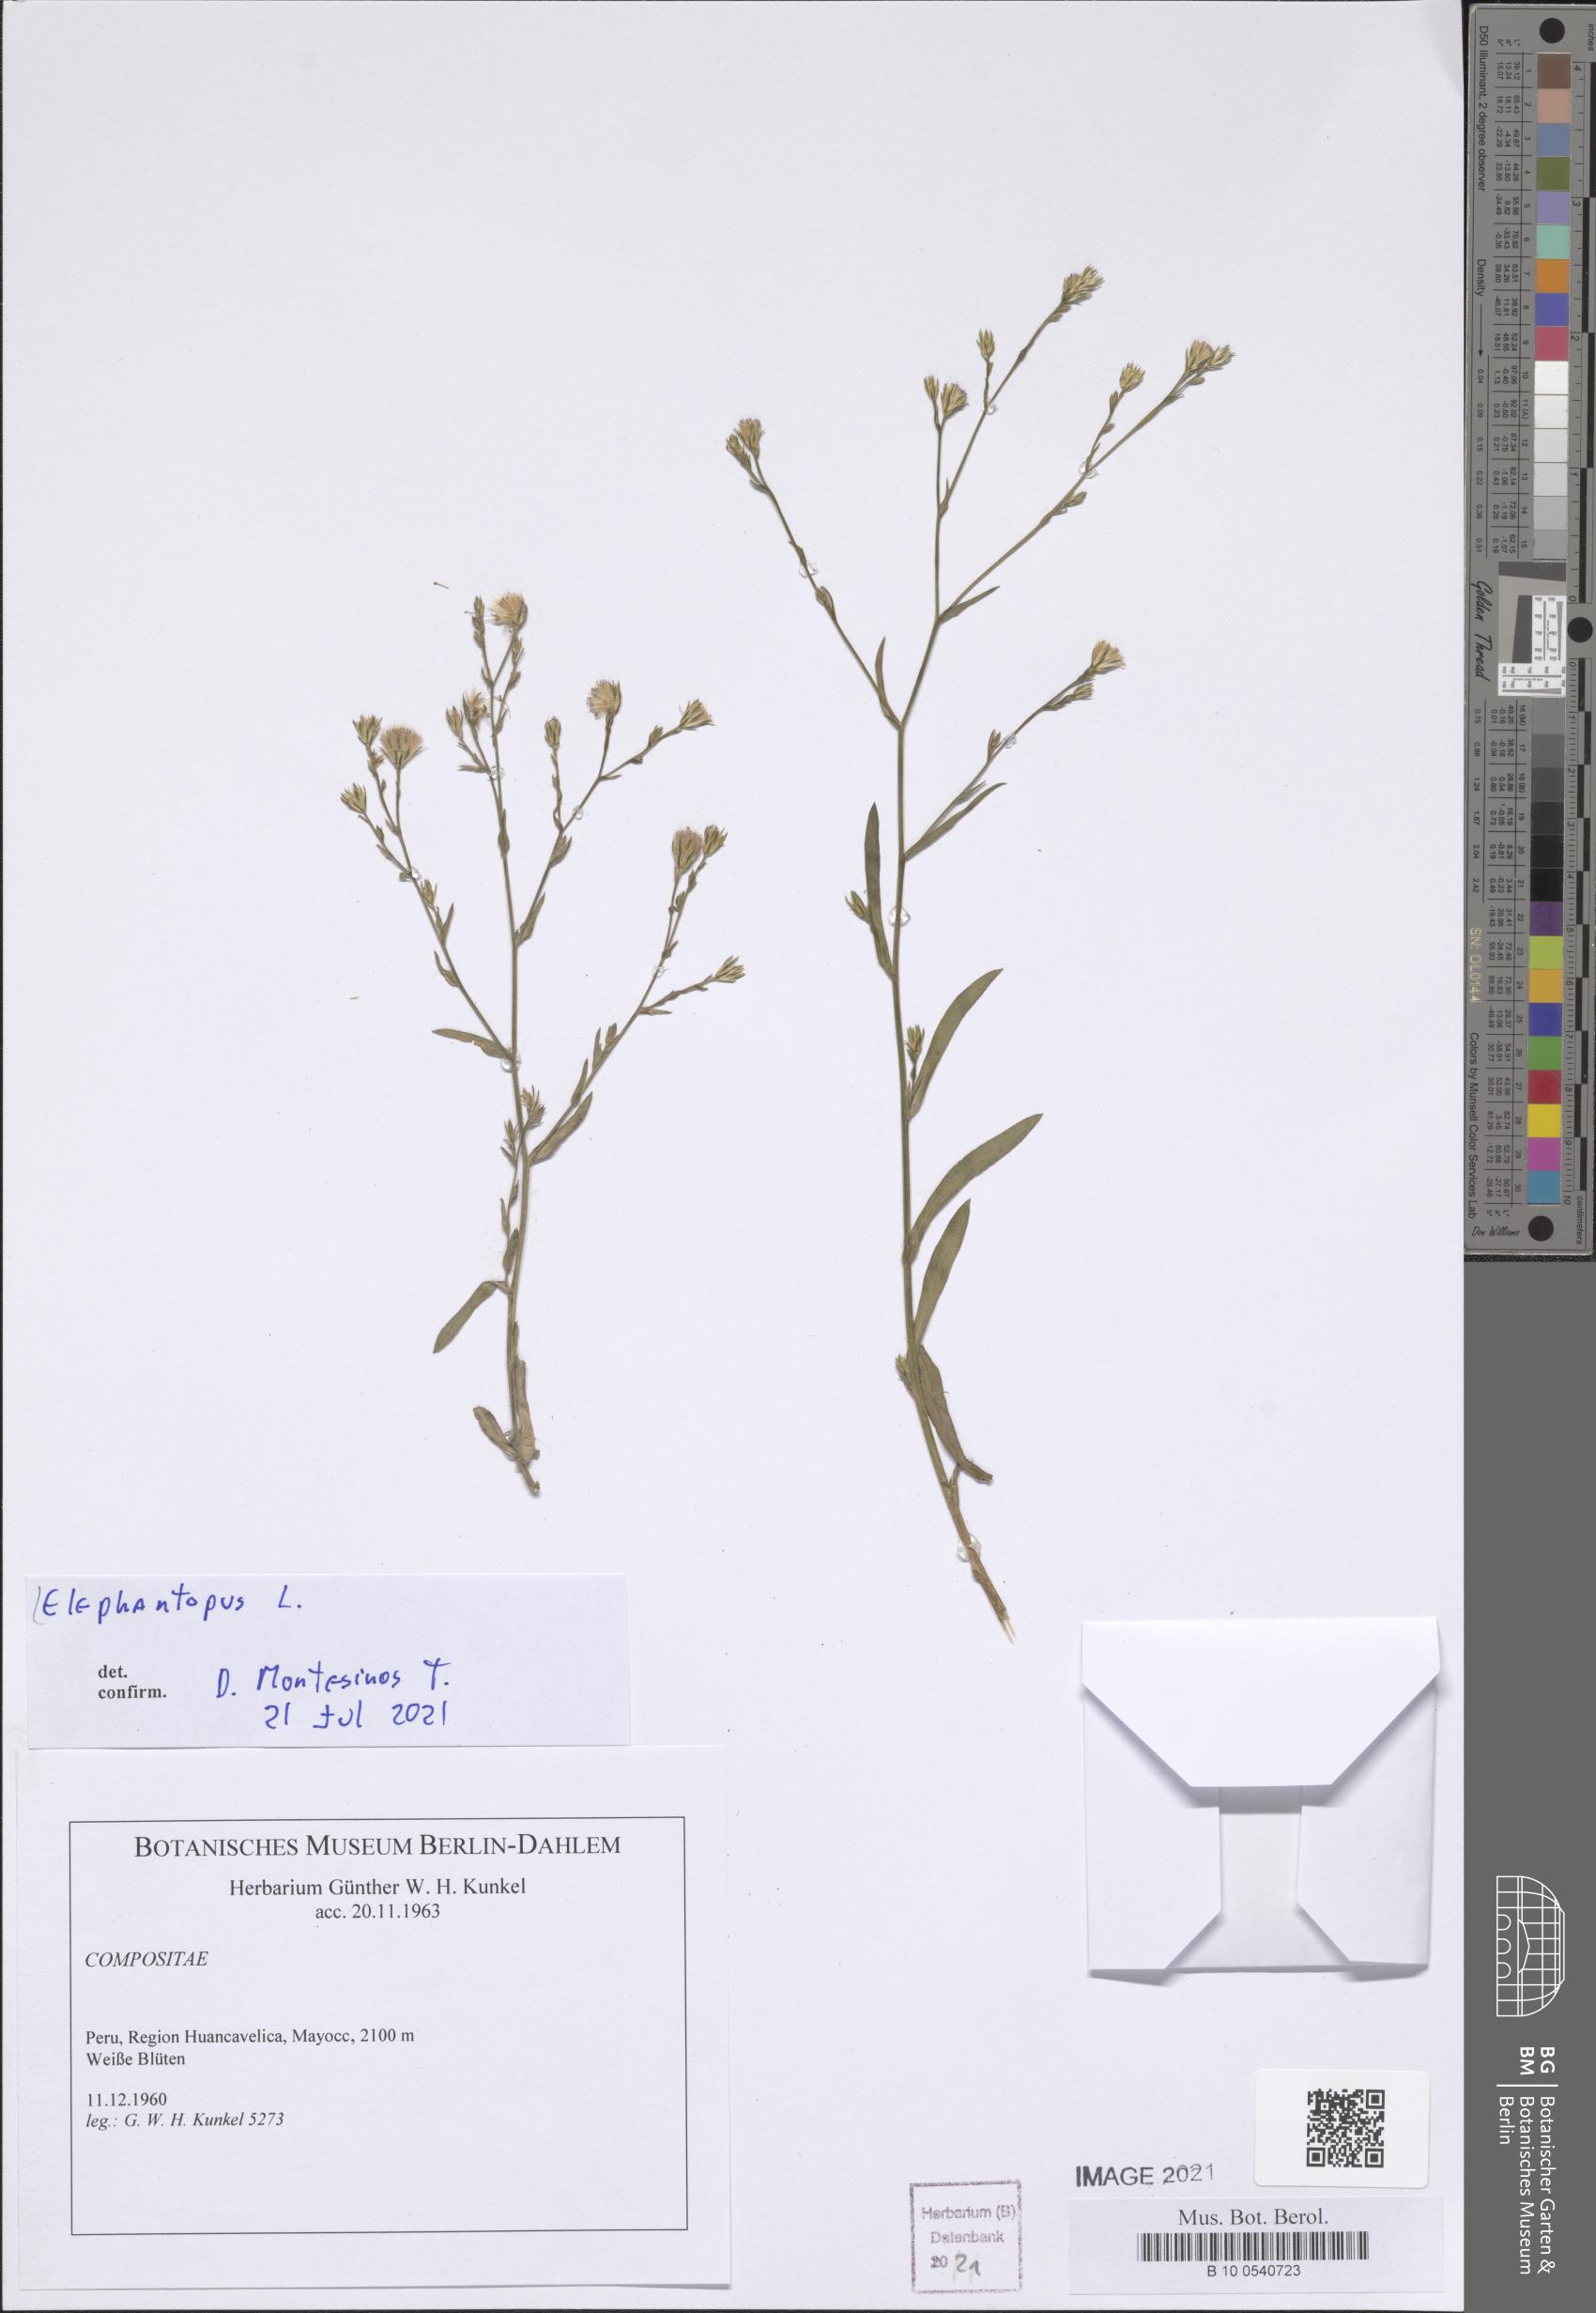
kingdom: Plantae
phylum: Tracheophyta
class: Magnoliopsida
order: Asterales
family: Asteraceae
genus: Elephantopus
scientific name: Elephantopus
